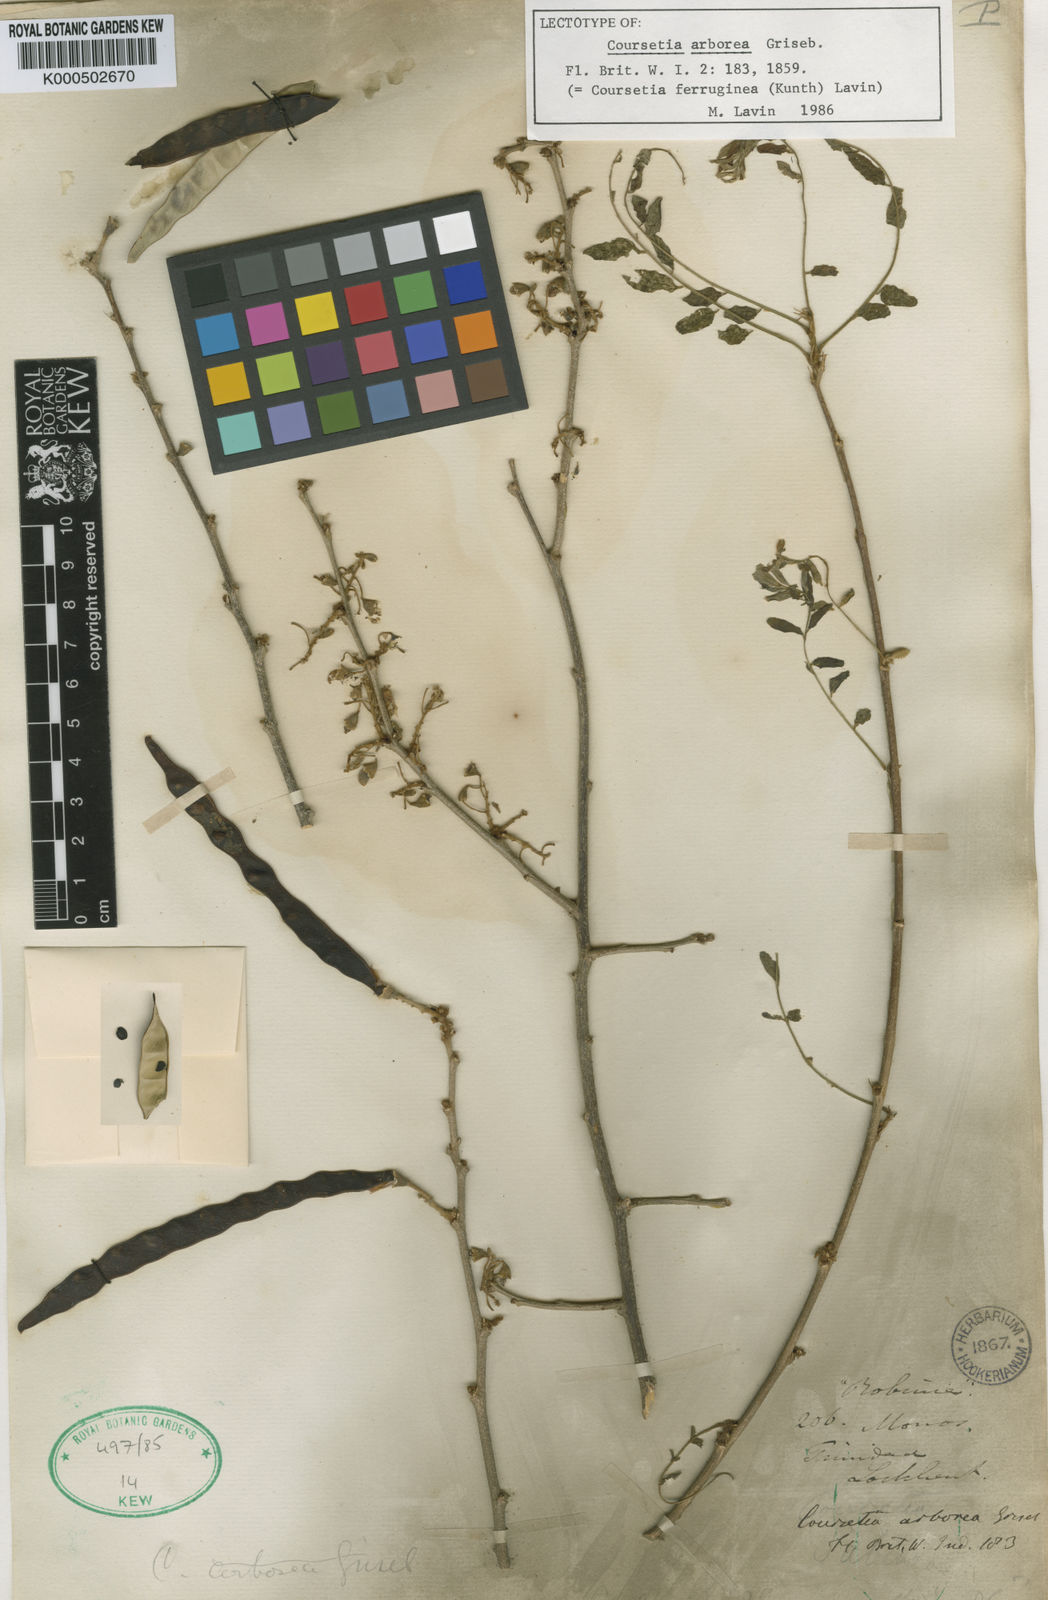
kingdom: Plantae
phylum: Tracheophyta
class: Magnoliopsida
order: Fabales
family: Fabaceae
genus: Coursetia
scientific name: Coursetia ferruginea
